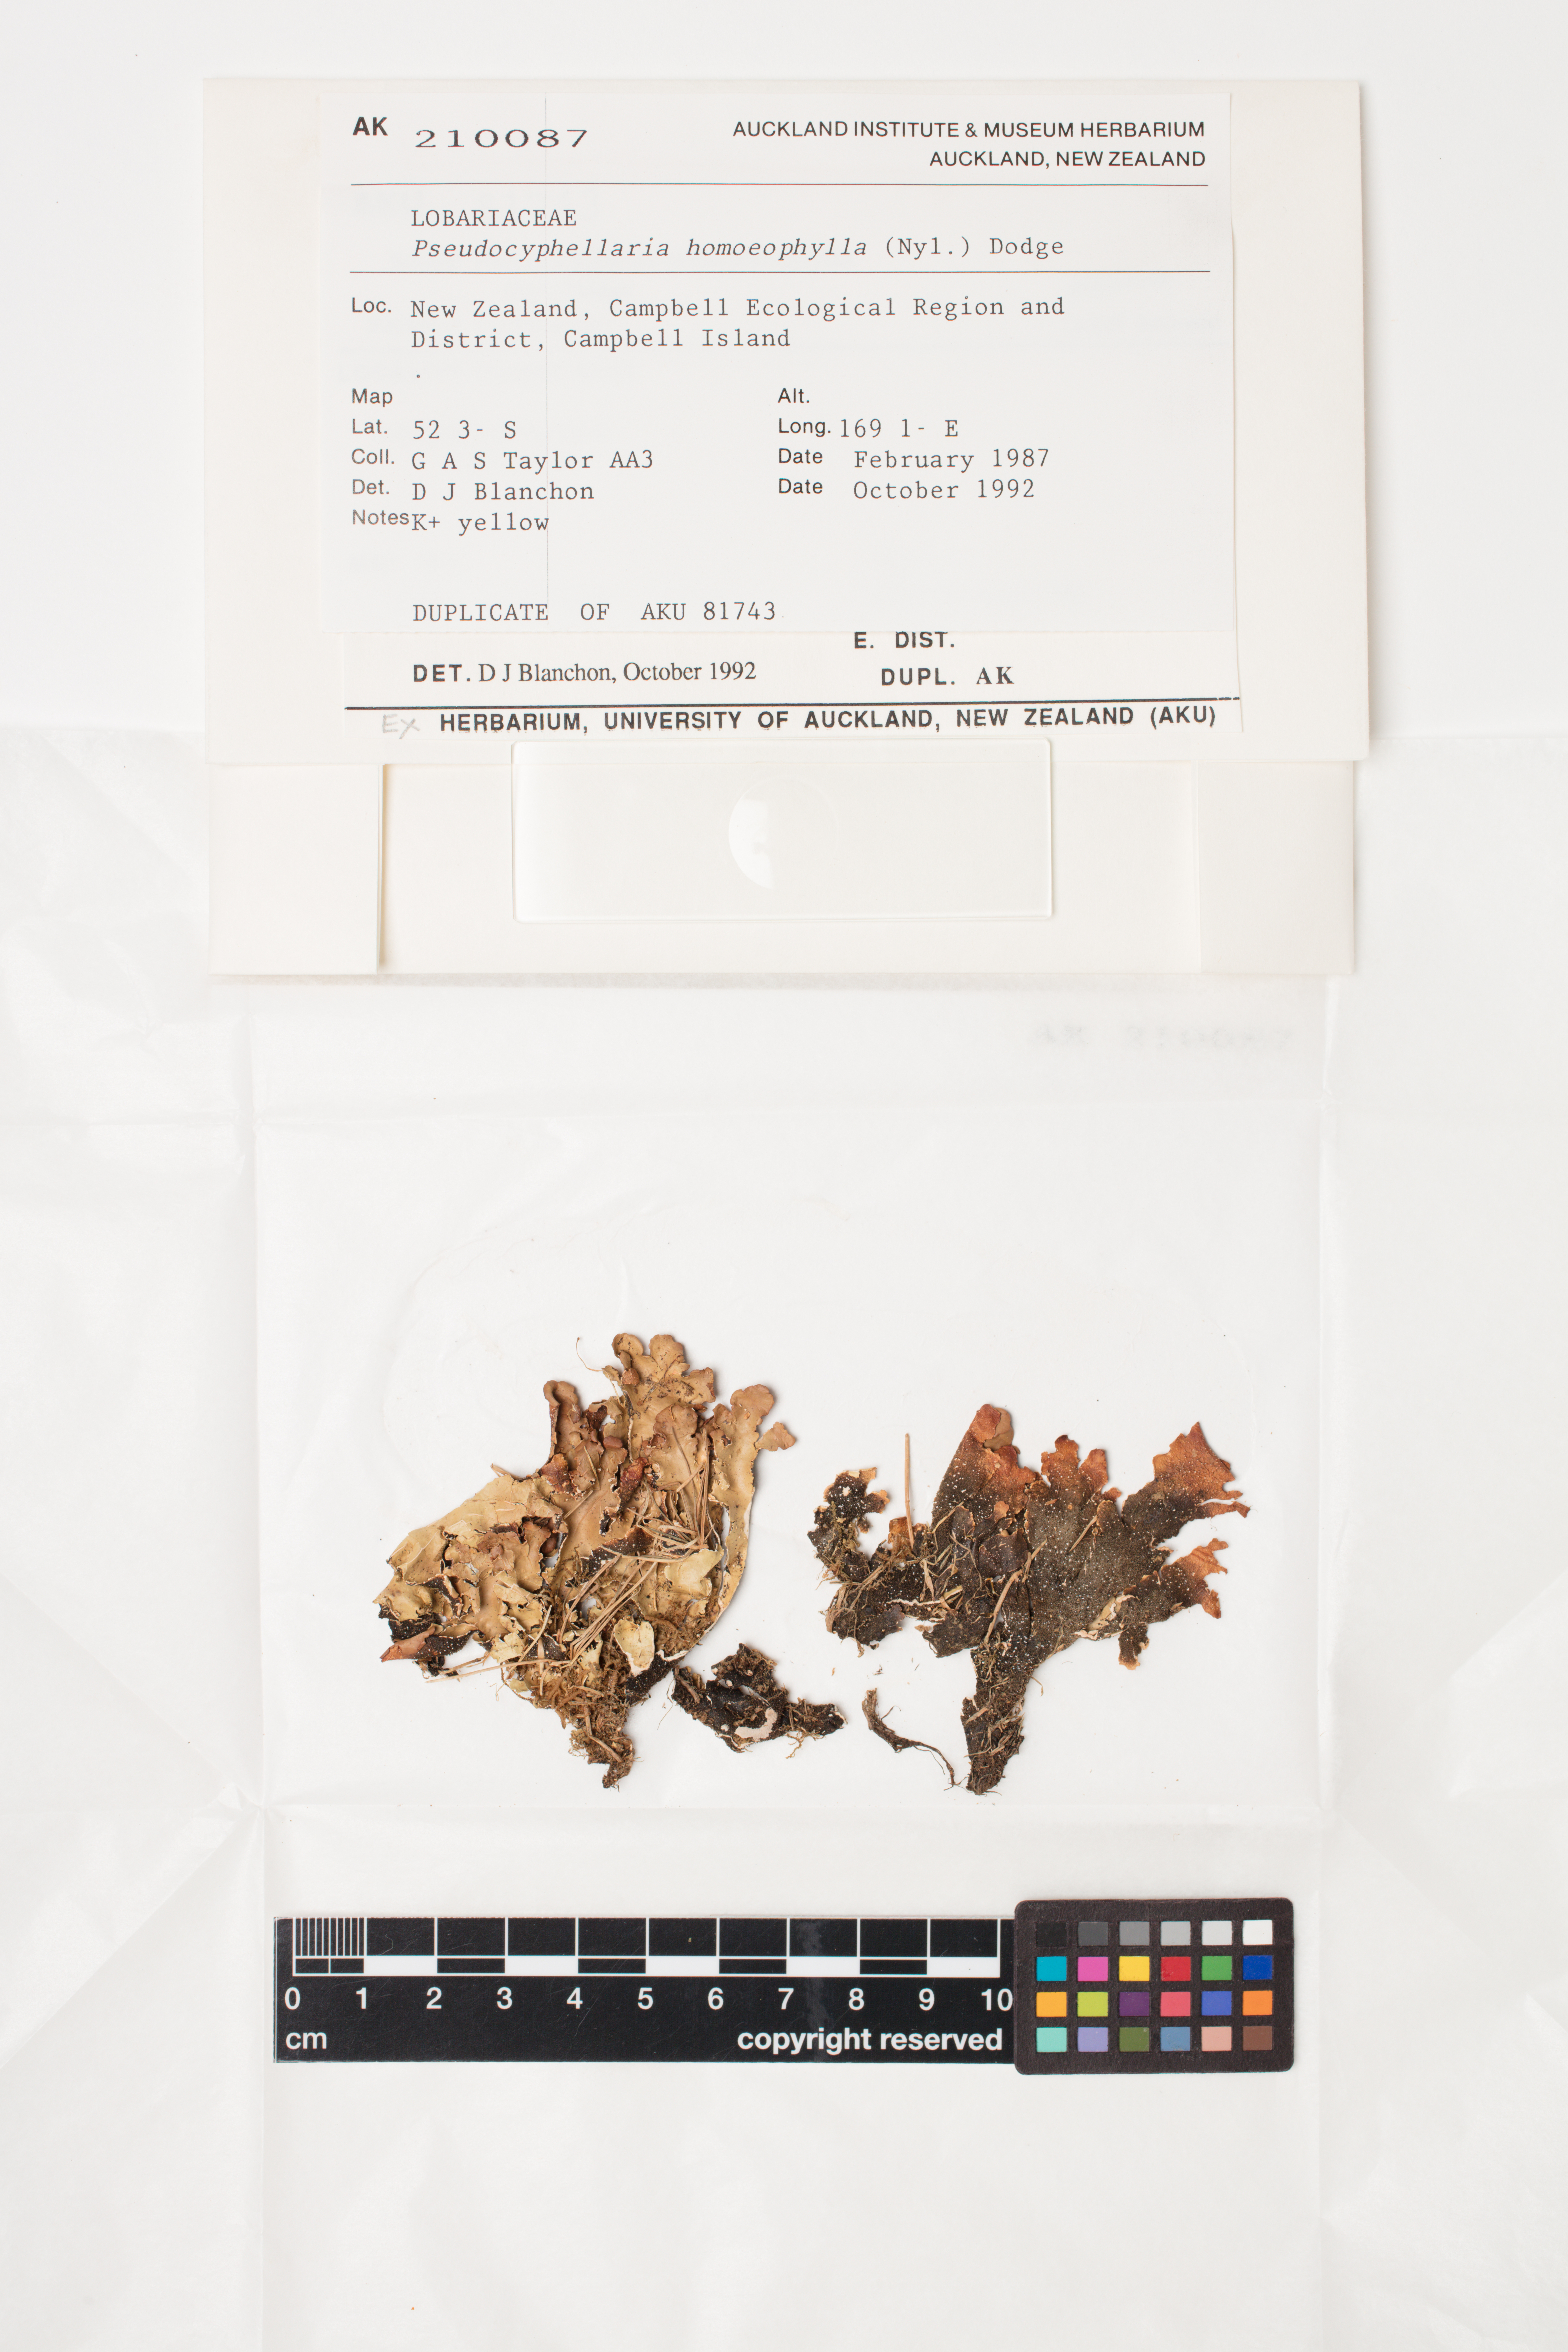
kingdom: Fungi
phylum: Ascomycota
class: Lecanoromycetes
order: Peltigerales
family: Lobariaceae
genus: Pseudocyphellaria
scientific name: Pseudocyphellaria homeophylla
